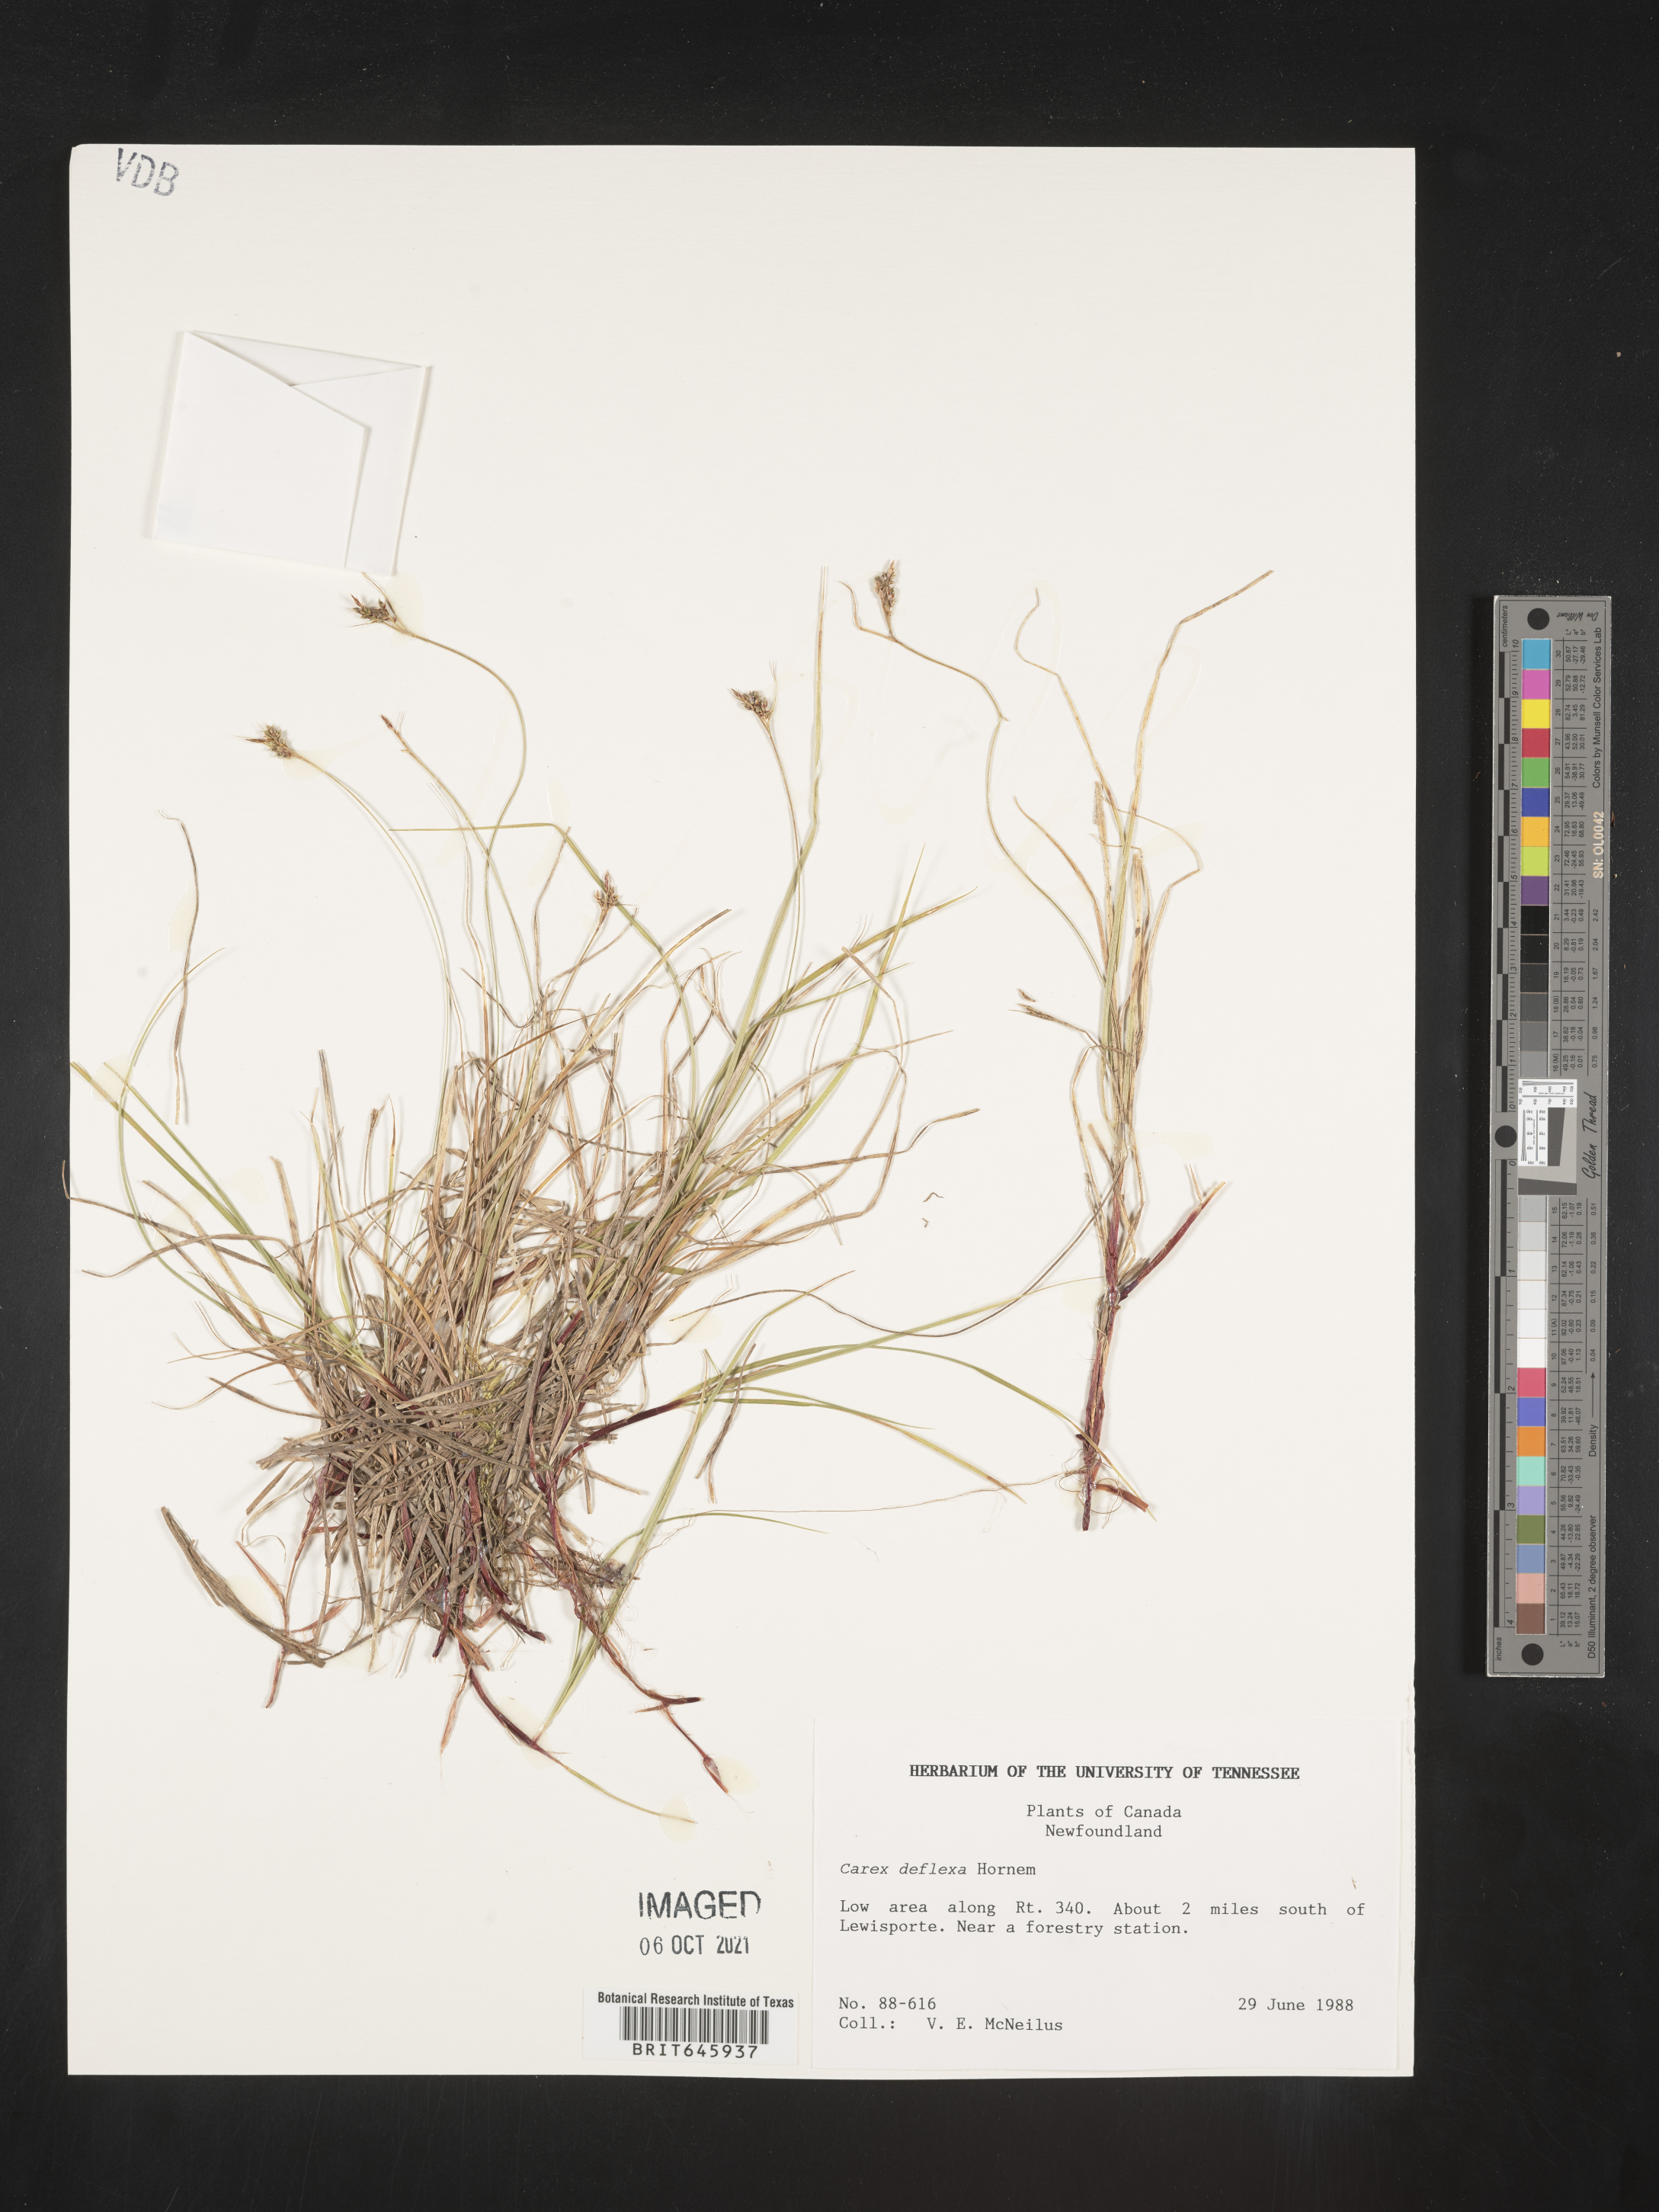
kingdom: Plantae
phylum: Tracheophyta
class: Liliopsida
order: Poales
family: Cyperaceae
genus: Carex
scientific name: Carex deflexa
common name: Bent northern sedge
